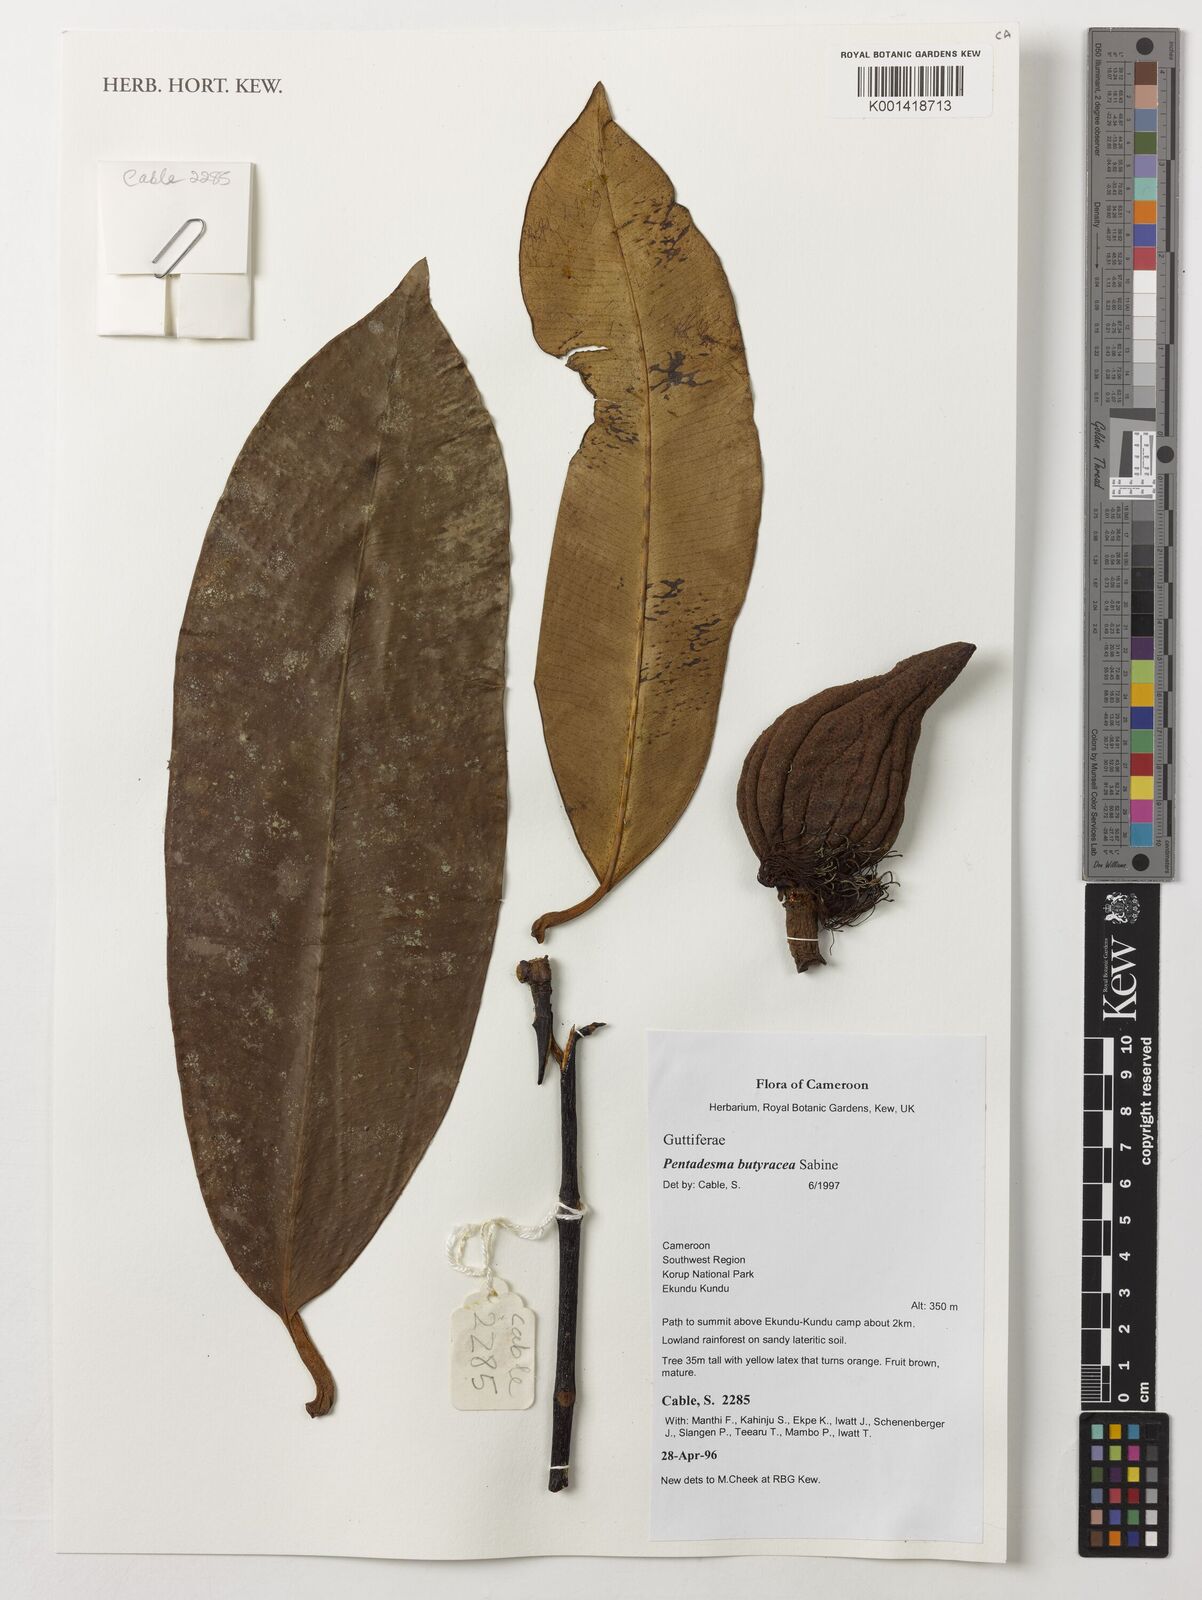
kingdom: Plantae
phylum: Tracheophyta
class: Magnoliopsida
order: Malpighiales
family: Clusiaceae
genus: Pentadesma
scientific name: Pentadesma butyracea
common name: Buttertree
